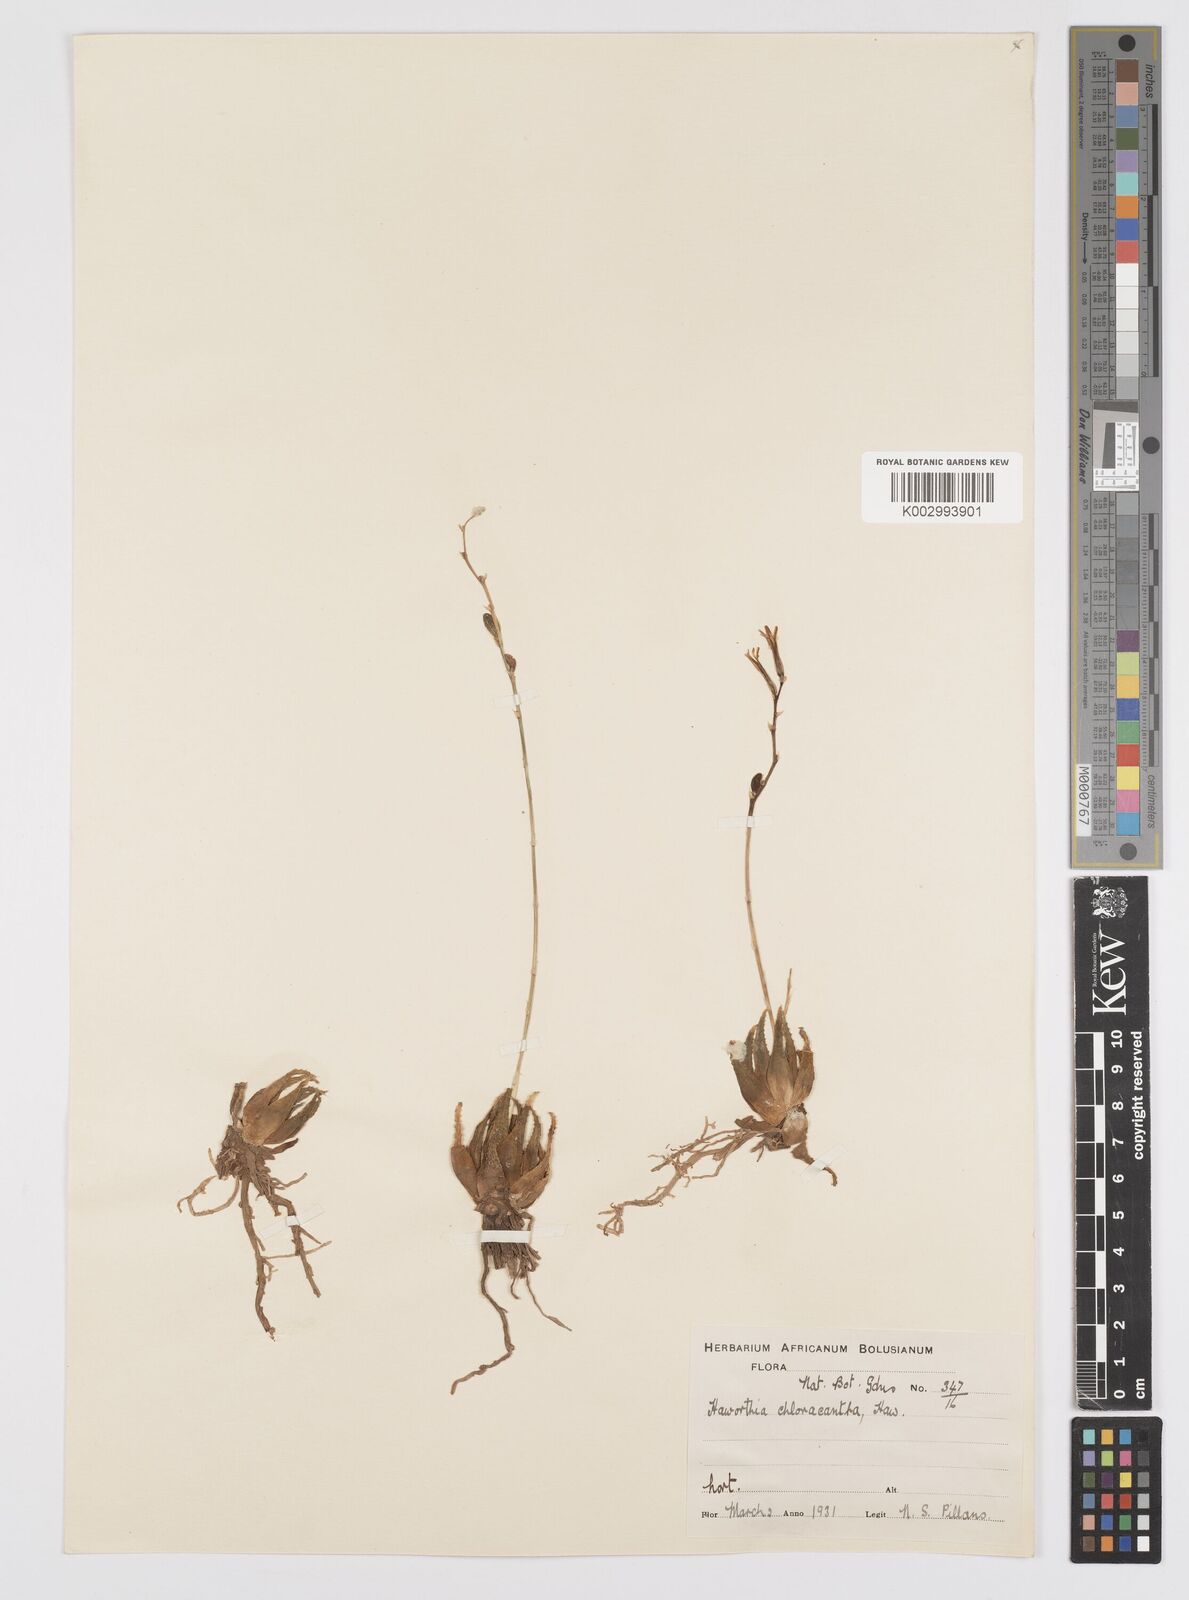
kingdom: Plantae
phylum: Tracheophyta
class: Liliopsida
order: Asparagales
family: Asphodelaceae
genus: Haworthia
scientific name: Haworthia chloracantha
